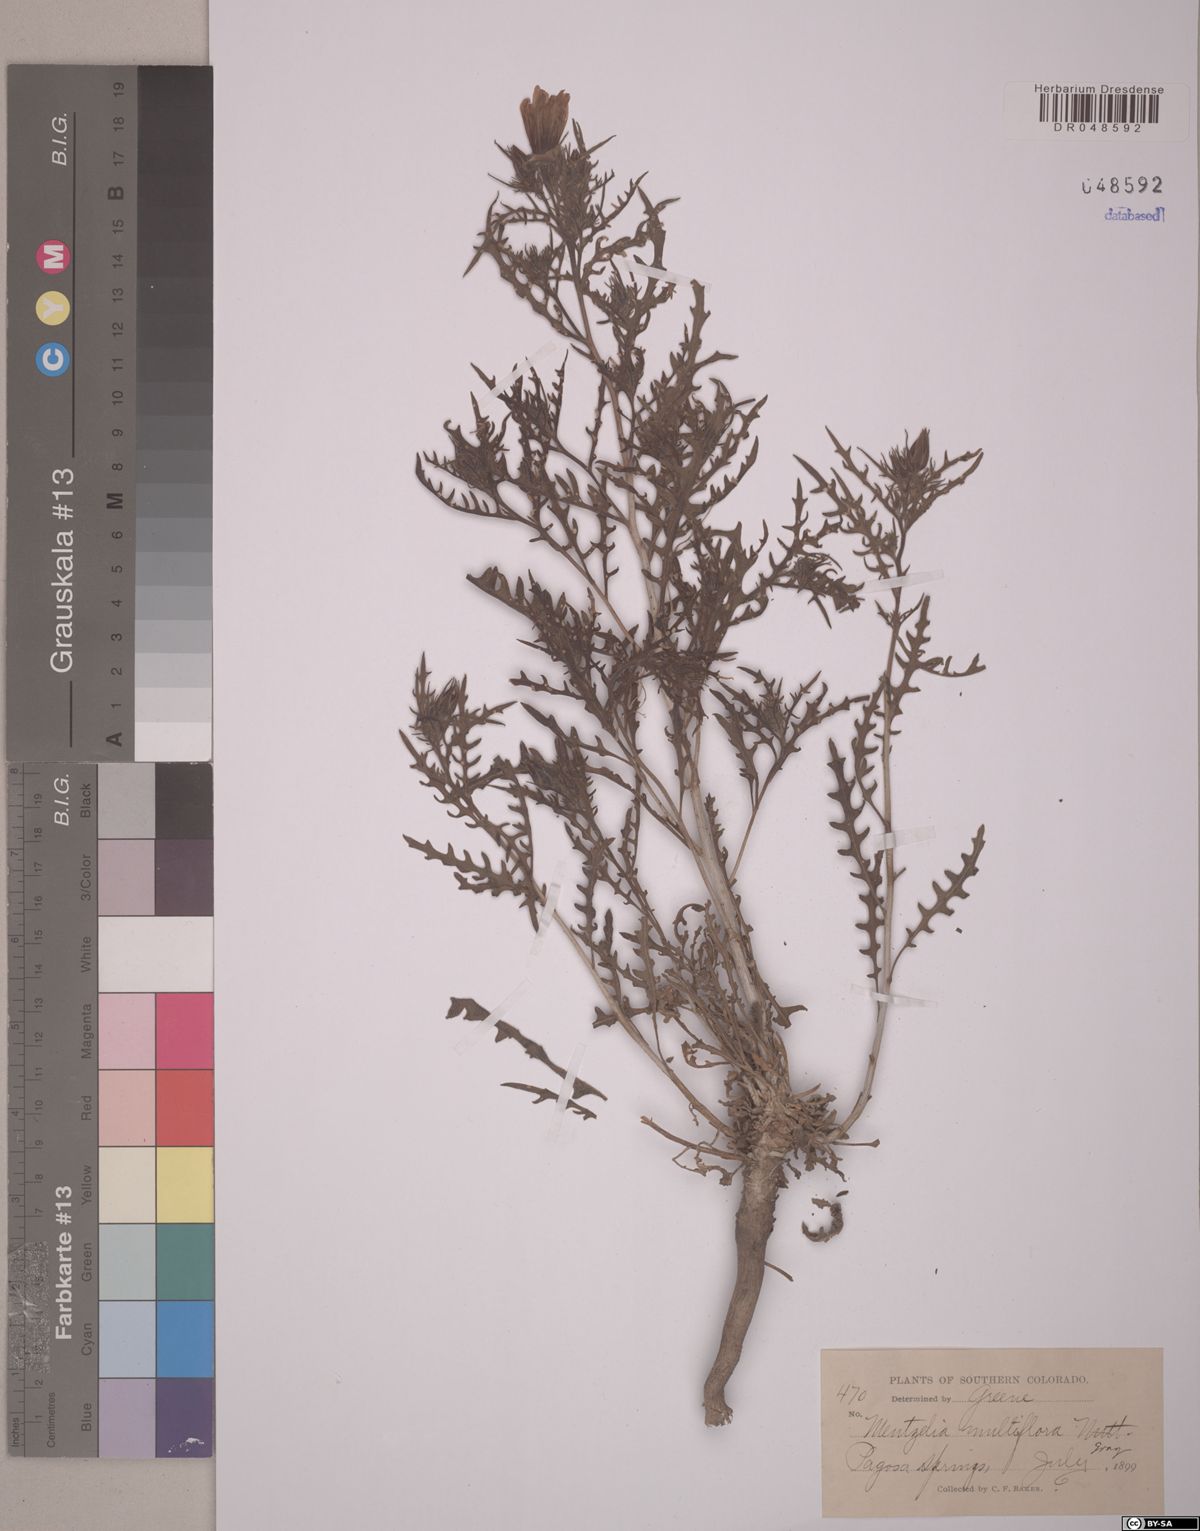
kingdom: Plantae
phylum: Tracheophyta
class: Magnoliopsida
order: Cornales
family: Loasaceae
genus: Mentzelia
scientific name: Mentzelia multiflora
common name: Adonis blazingstar
